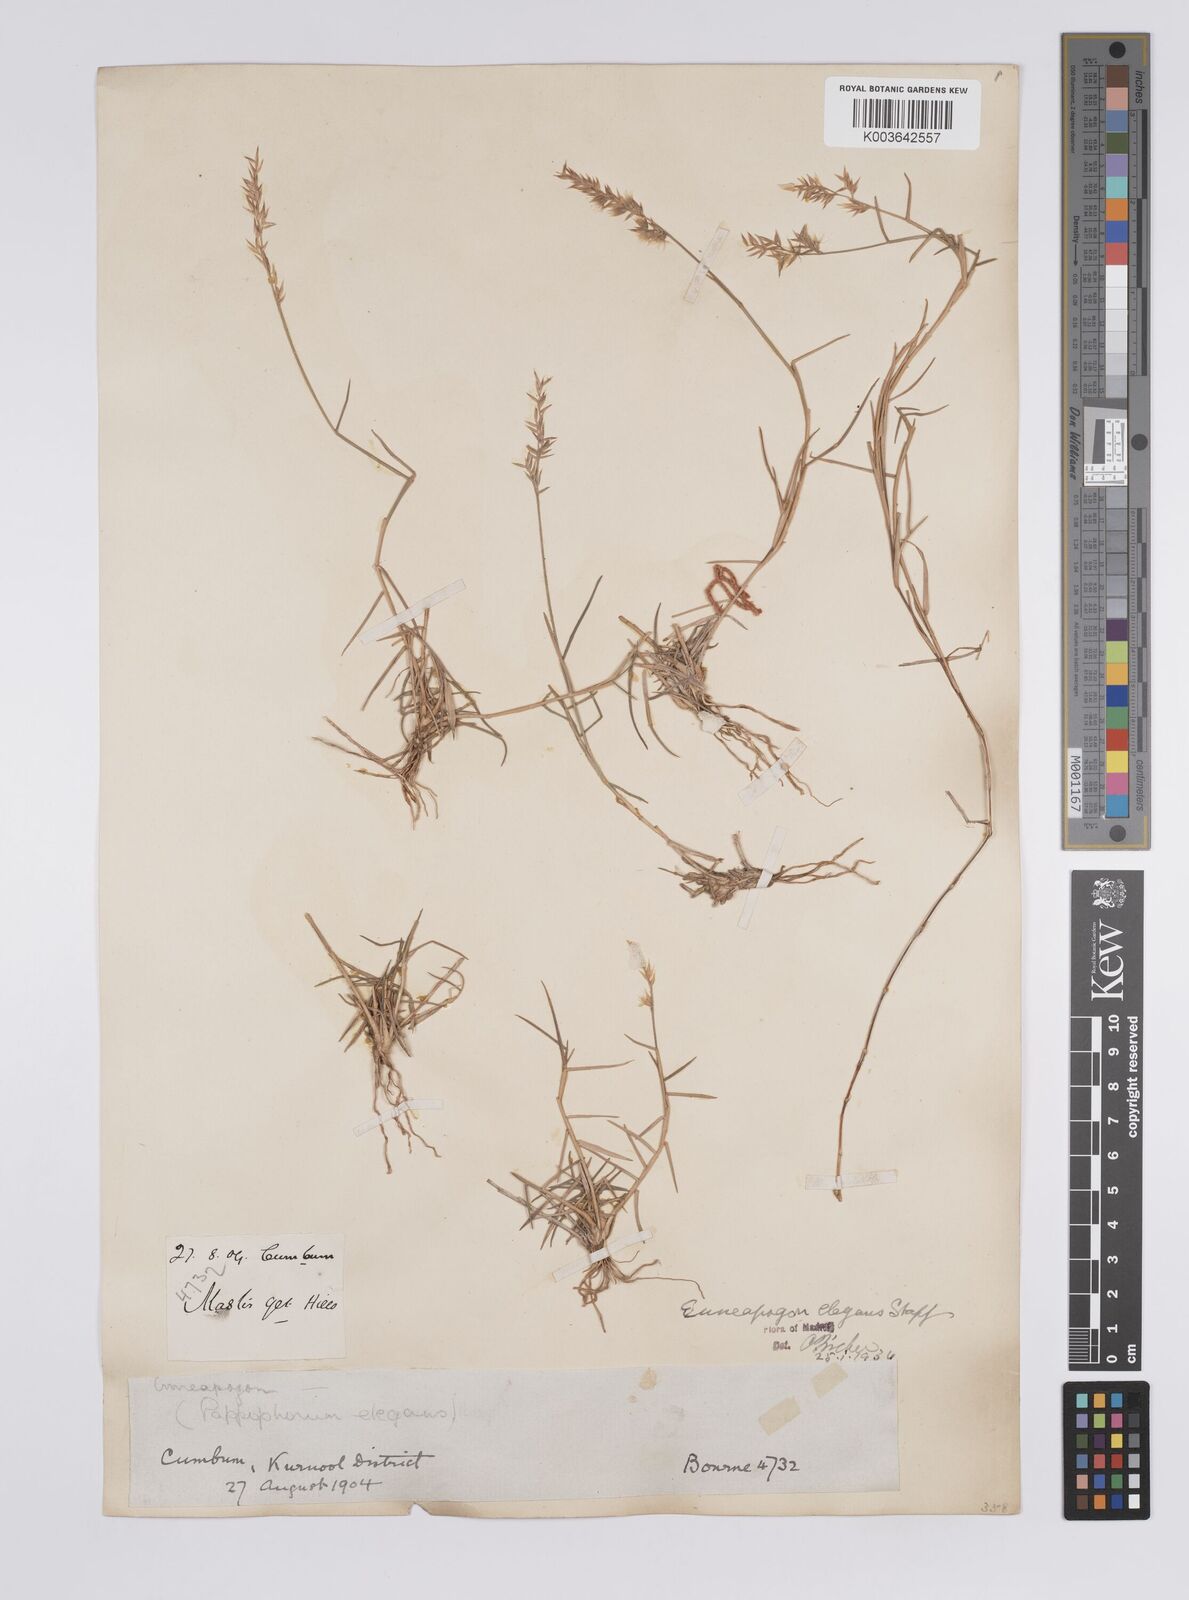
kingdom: Plantae
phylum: Tracheophyta
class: Liliopsida
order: Poales
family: Poaceae
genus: Enneapogon
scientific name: Enneapogon persicus
